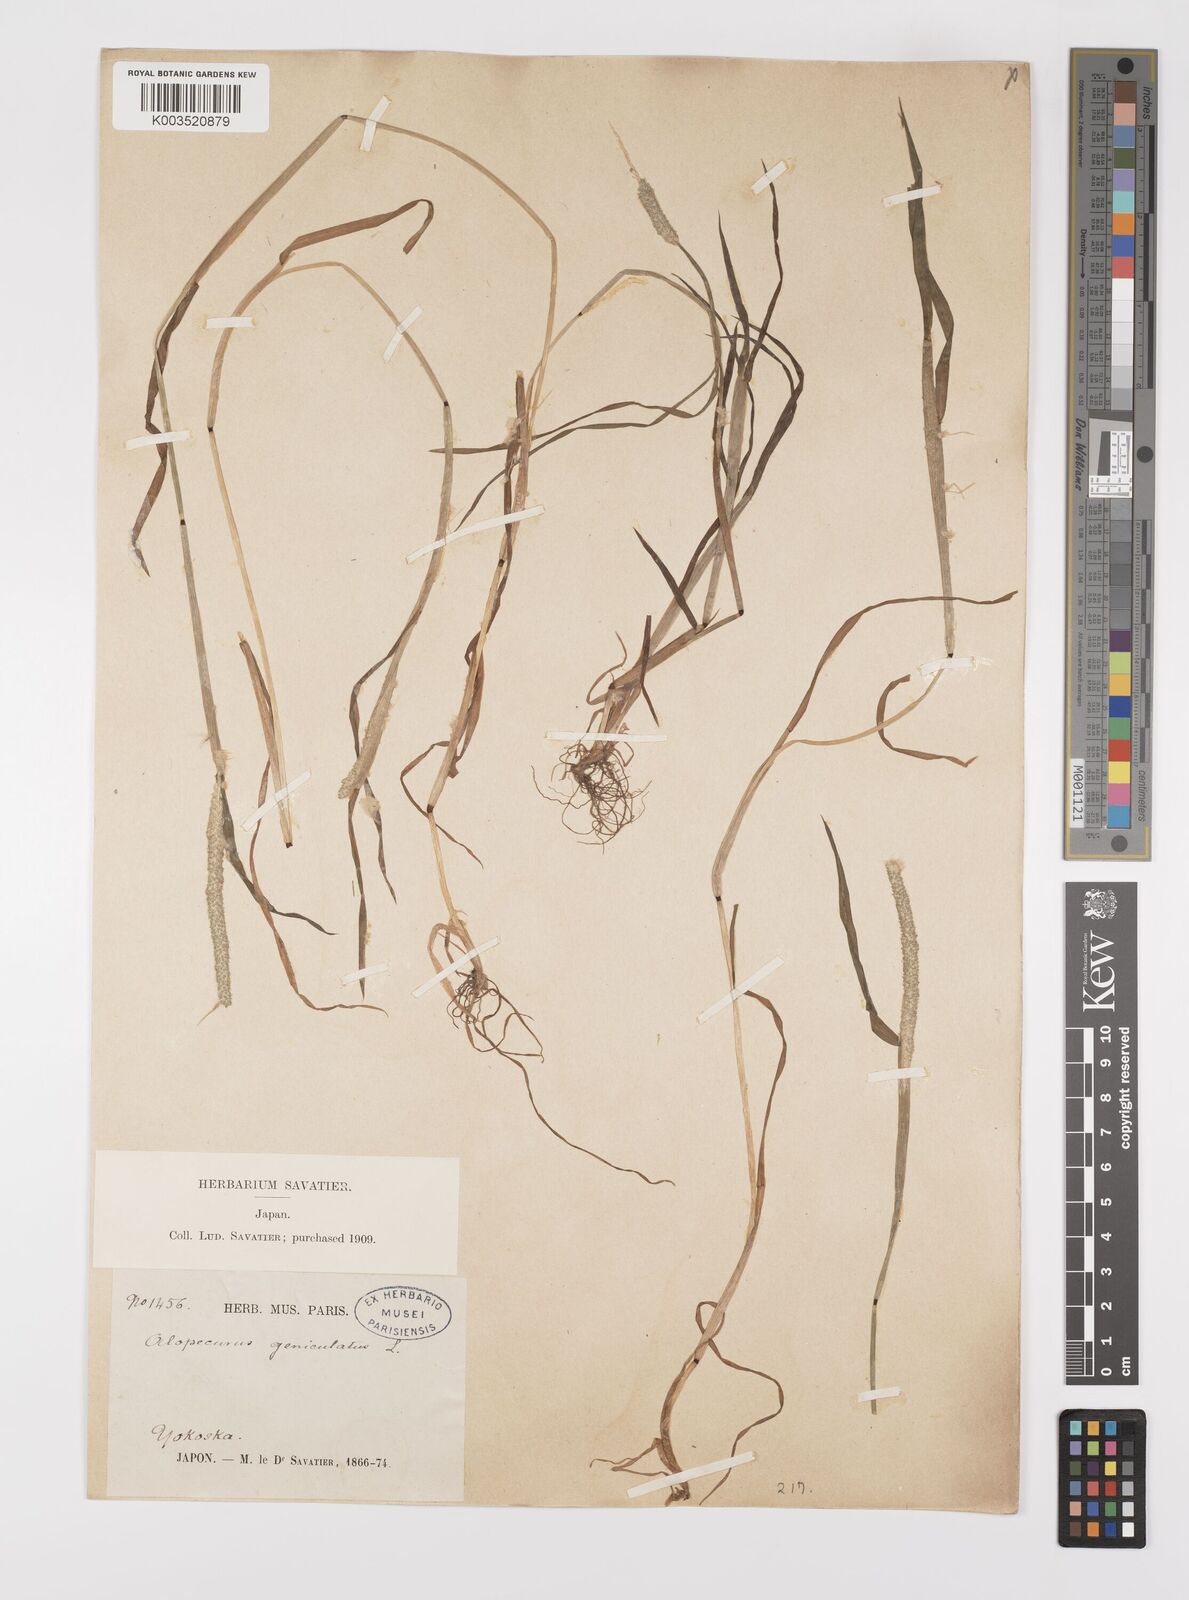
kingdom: Plantae
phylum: Tracheophyta
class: Liliopsida
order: Poales
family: Poaceae
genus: Alopecurus
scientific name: Alopecurus aequalis
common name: Orange foxtail
